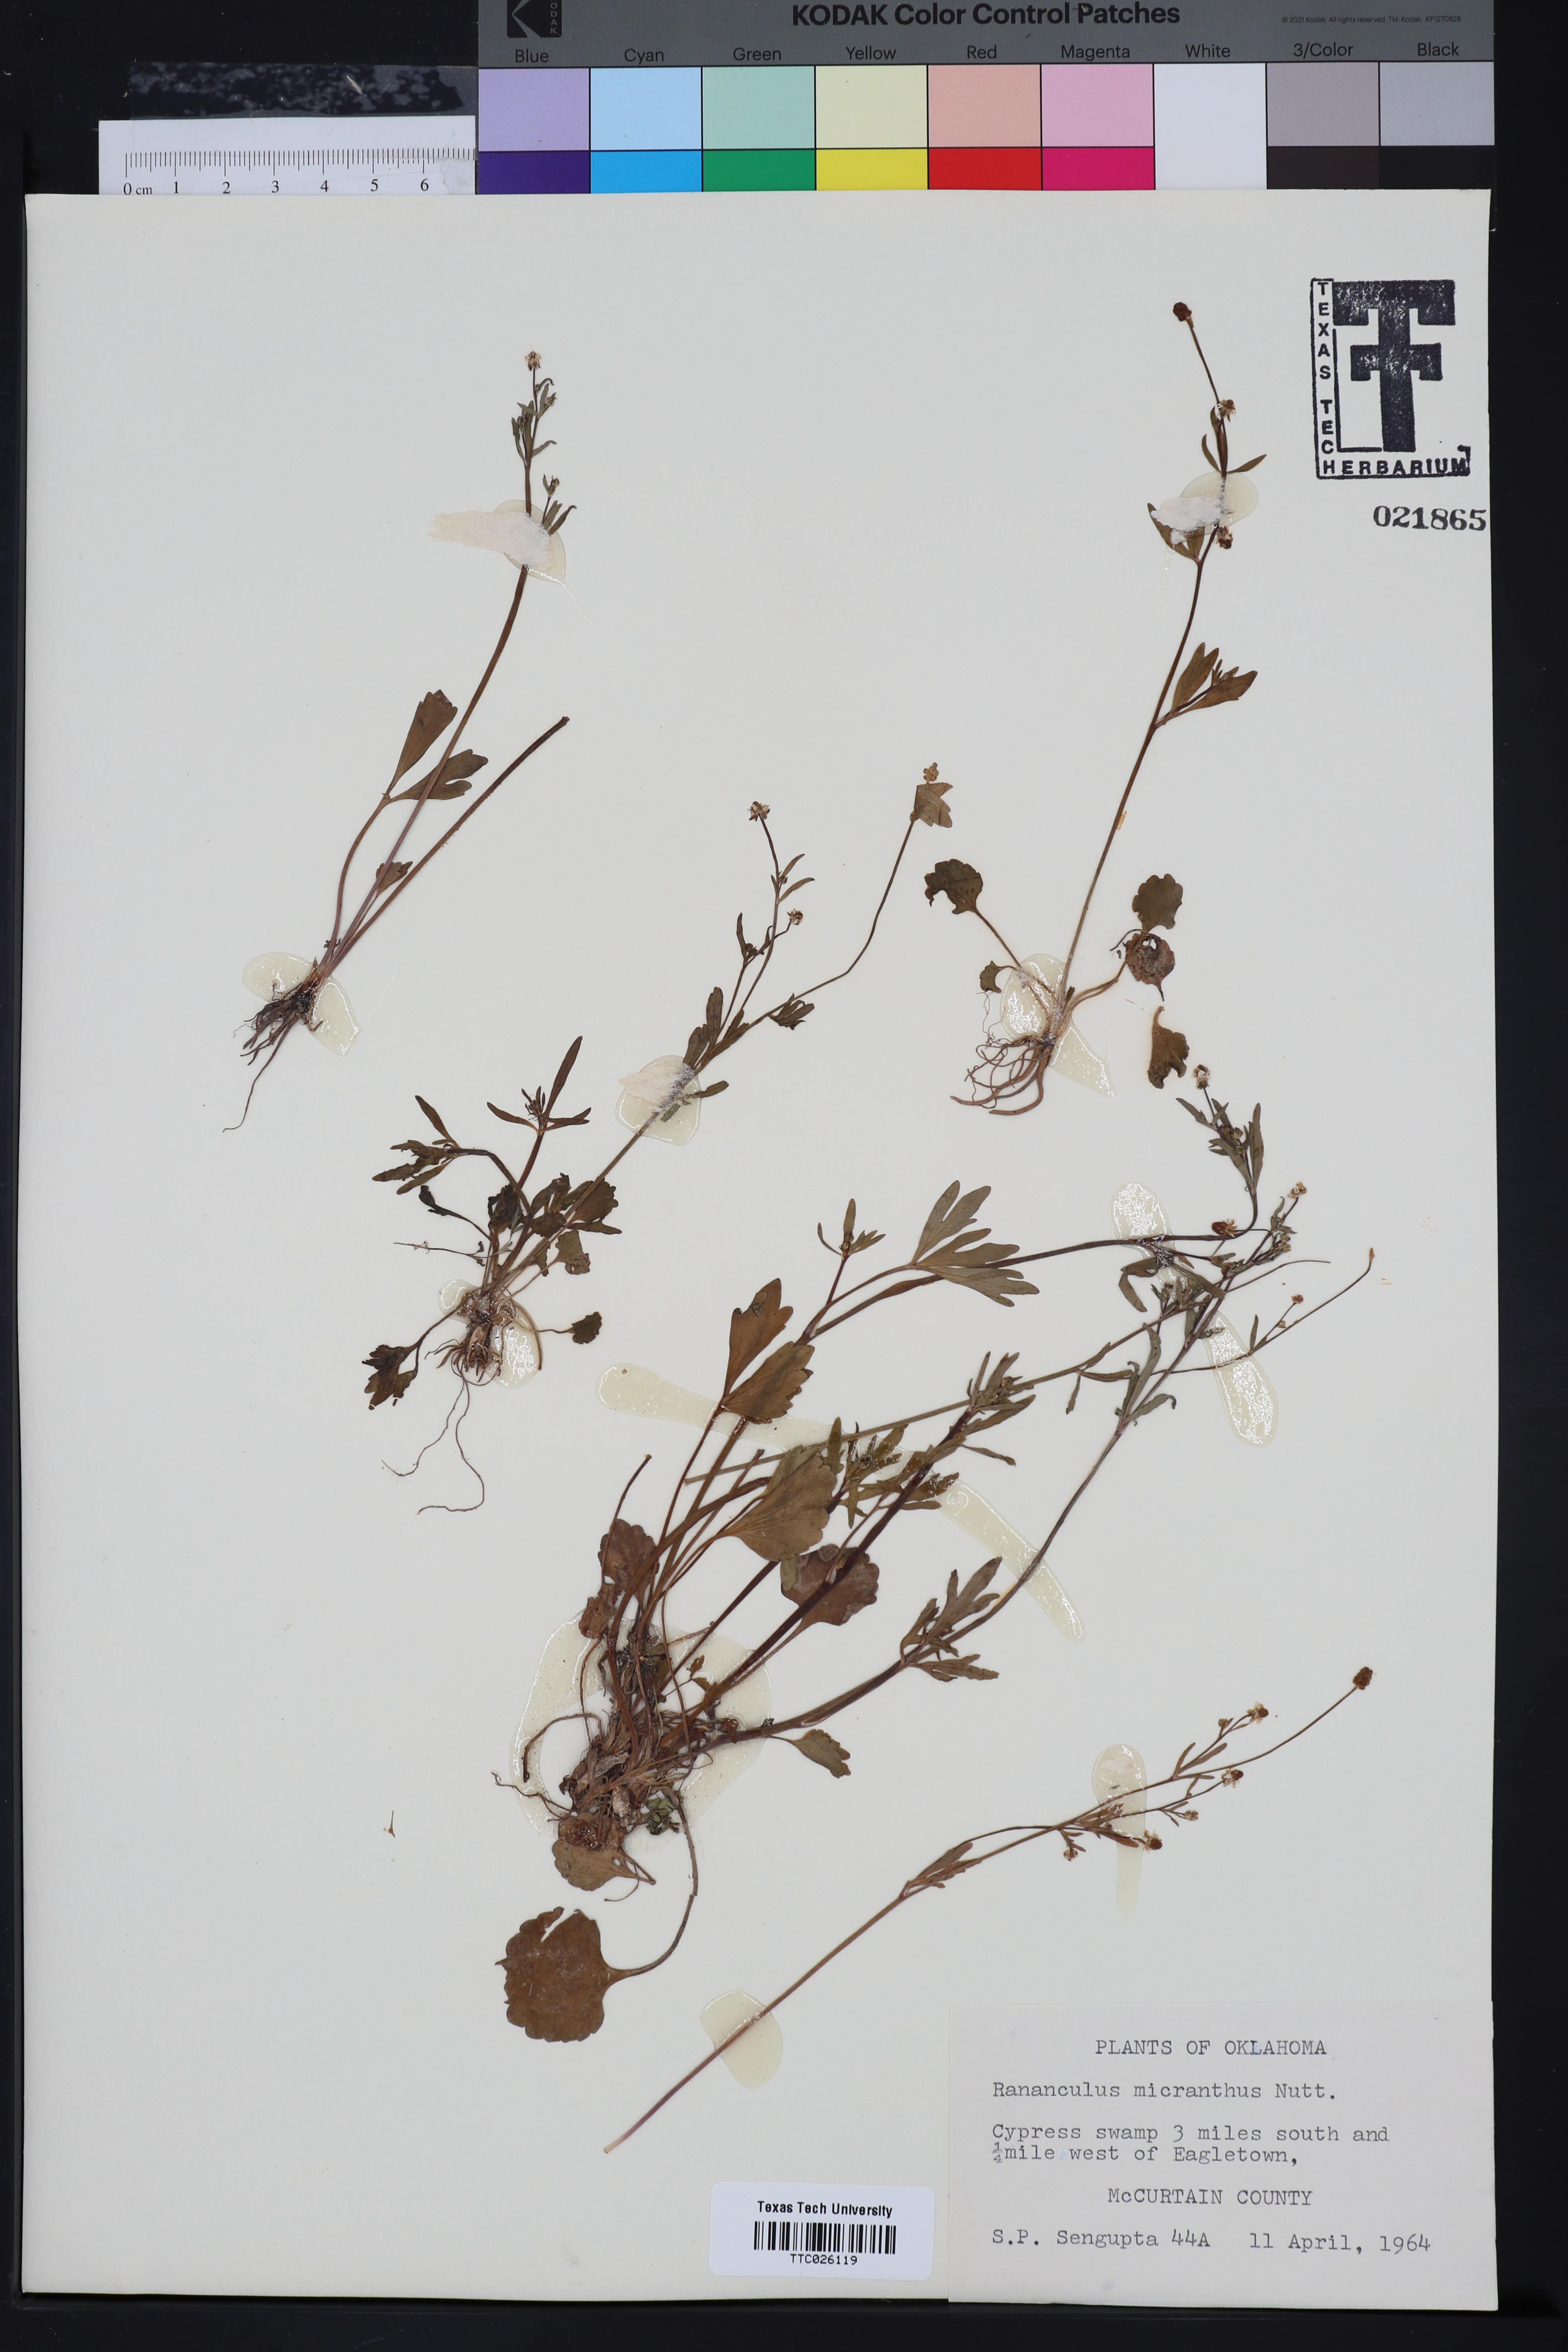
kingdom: Plantae
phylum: Tracheophyta
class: Magnoliopsida
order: Ranunculales
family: Ranunculaceae
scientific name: Ranunculaceae
